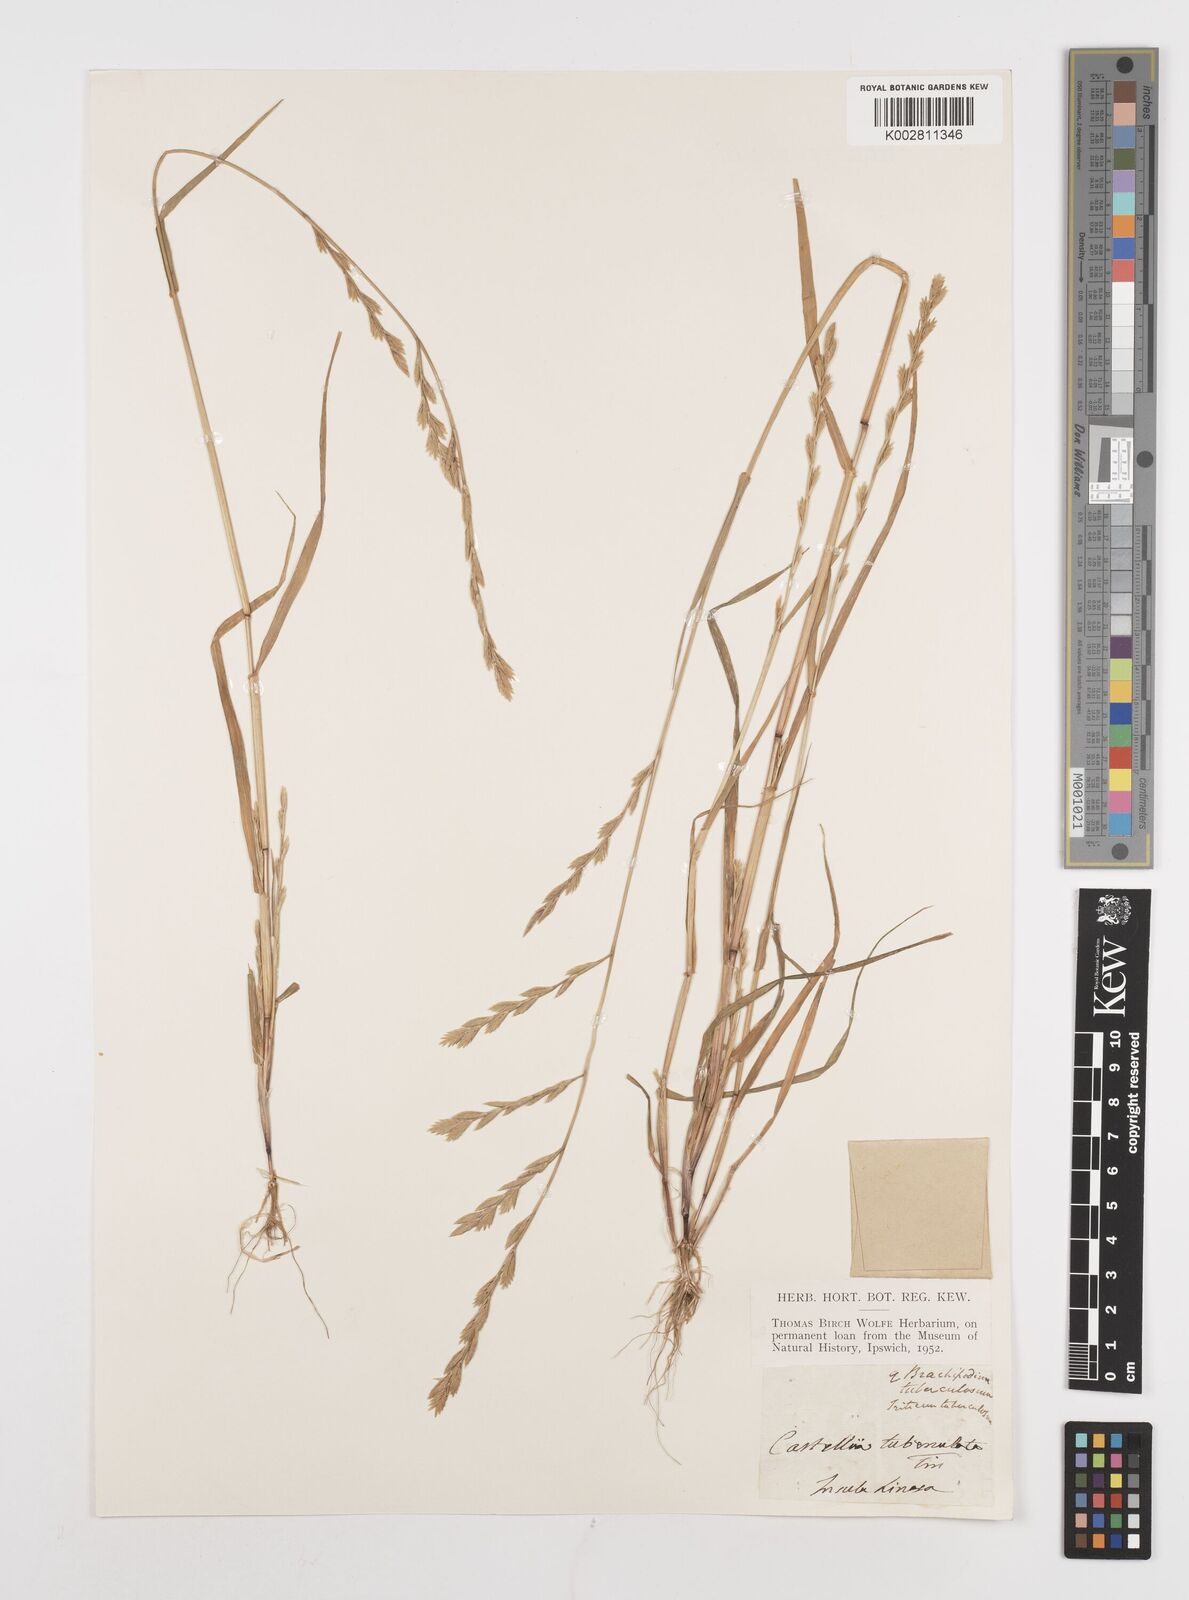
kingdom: Plantae
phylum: Tracheophyta
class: Liliopsida
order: Poales
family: Poaceae
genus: Castellia
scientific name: Castellia tuberculosa
